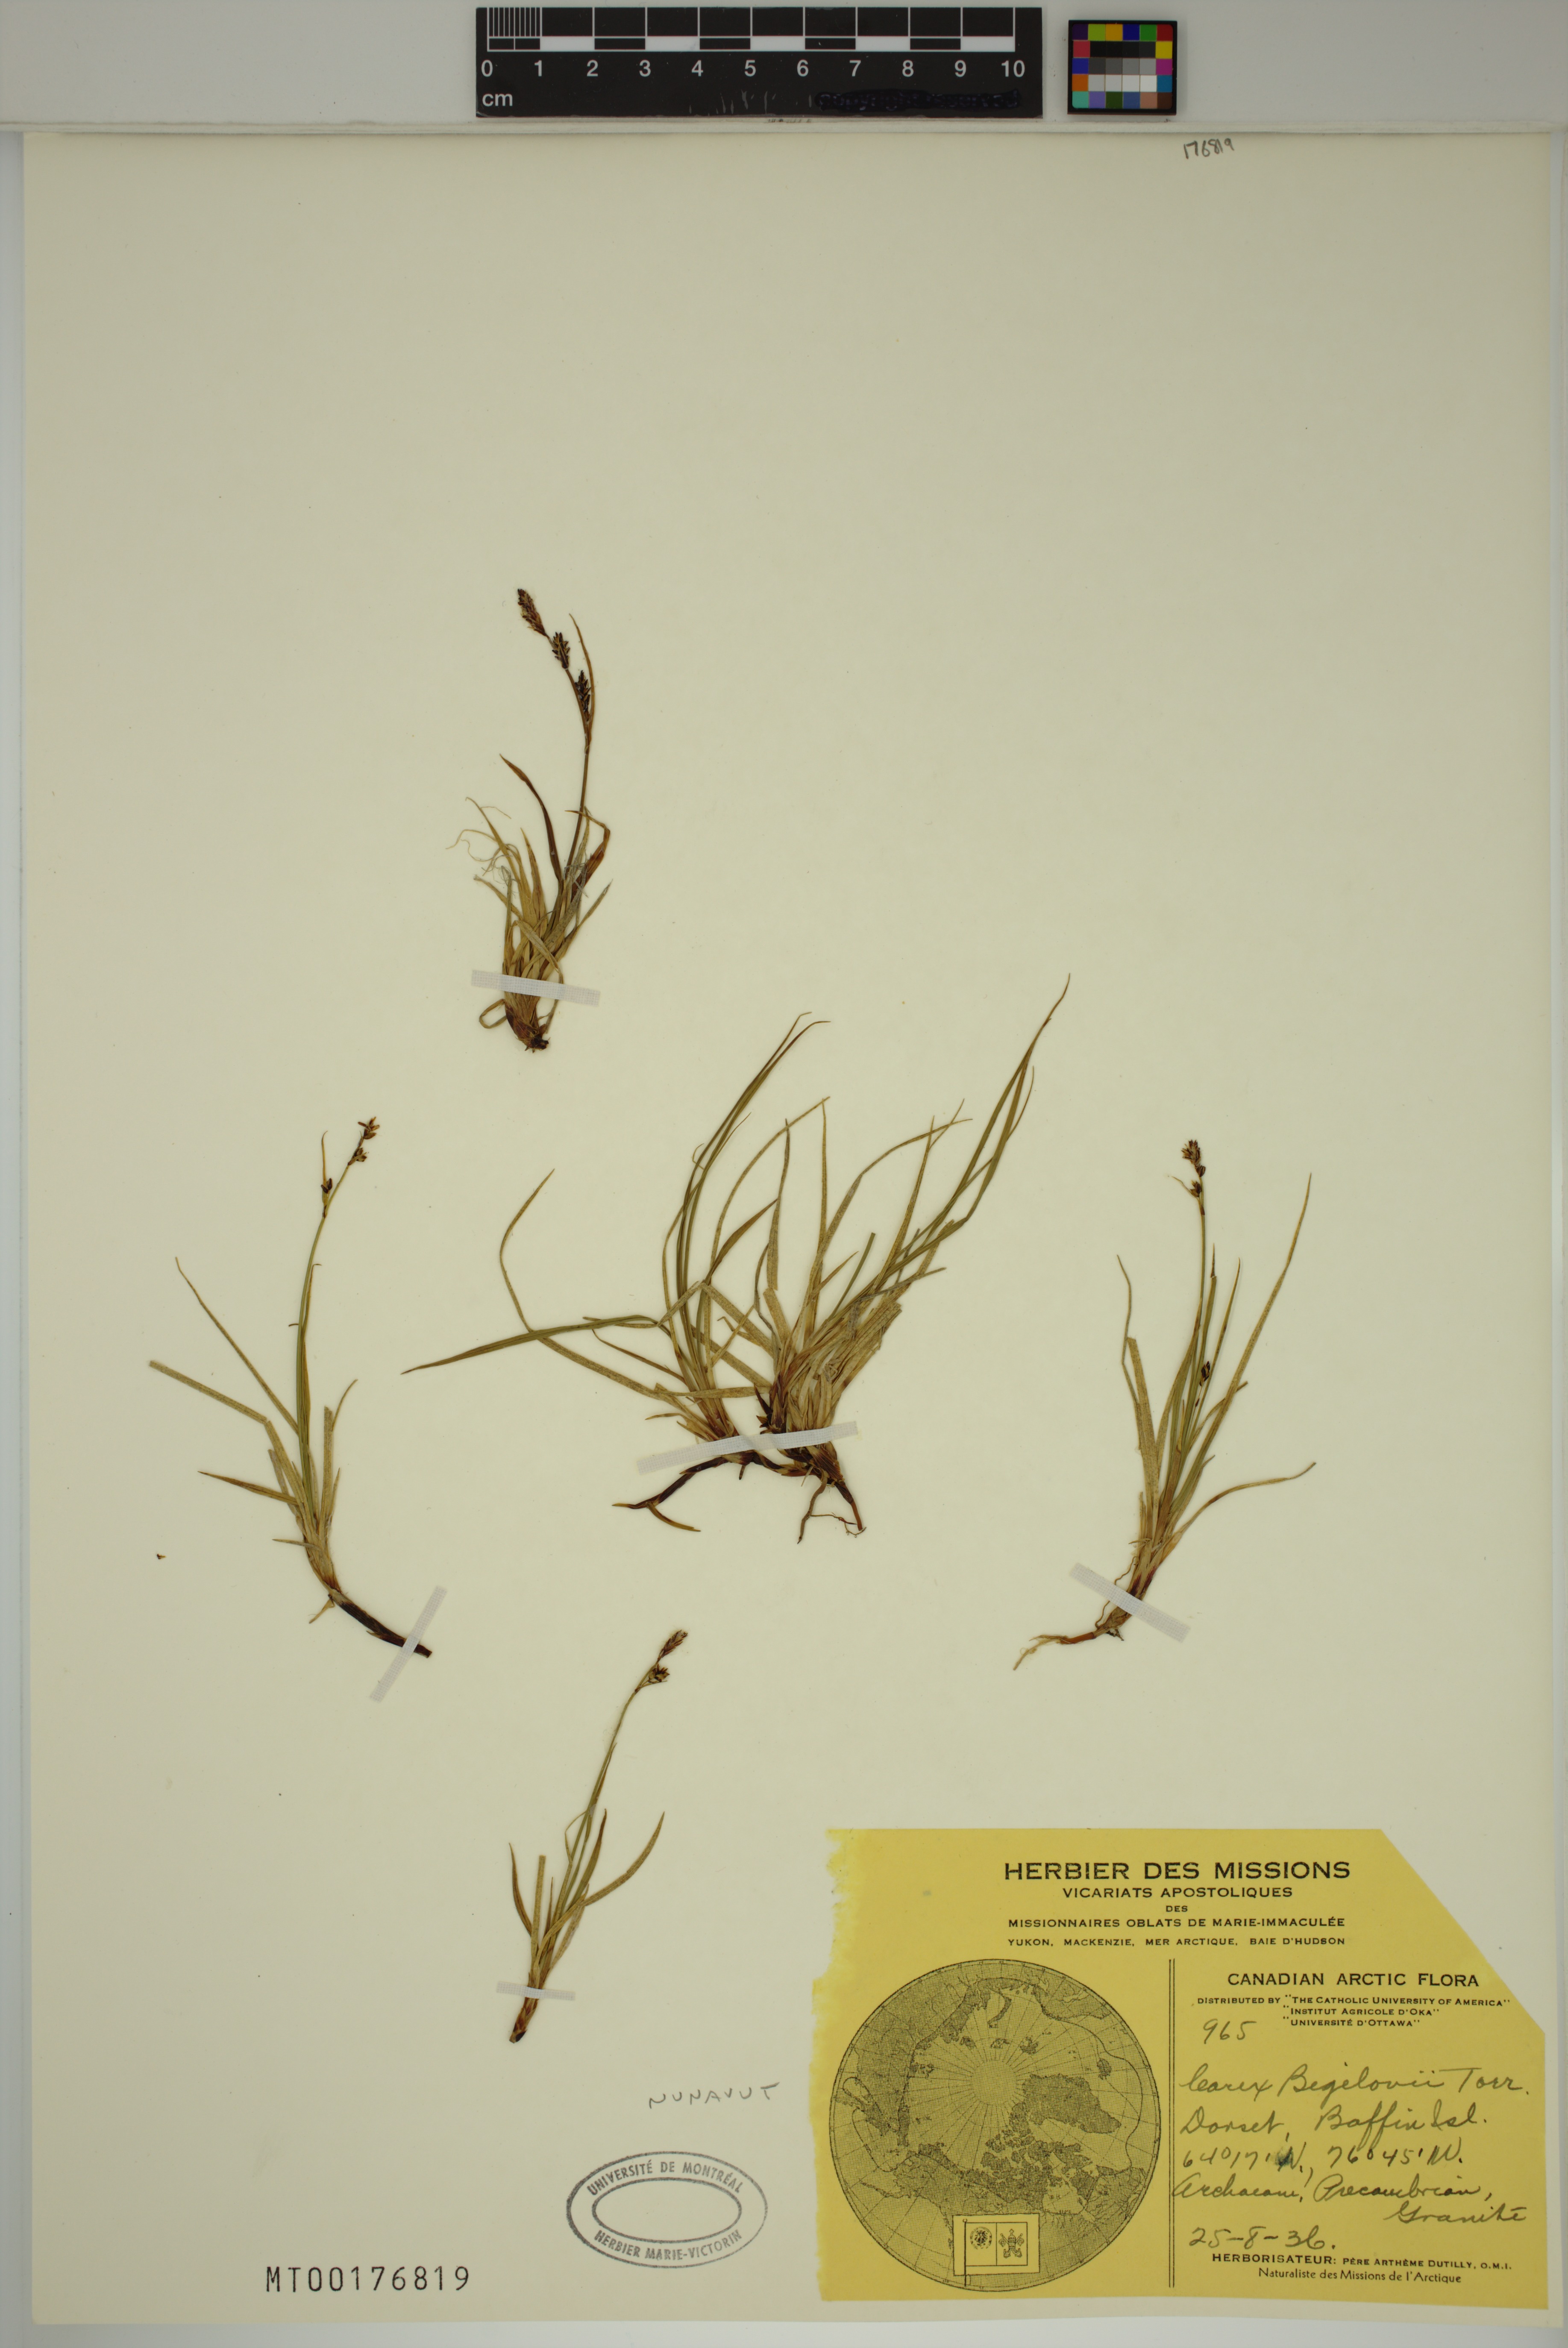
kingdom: Plantae
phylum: Tracheophyta
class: Liliopsida
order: Poales
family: Cyperaceae
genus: Carex
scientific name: Carex bigelowii
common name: Stiff sedge
